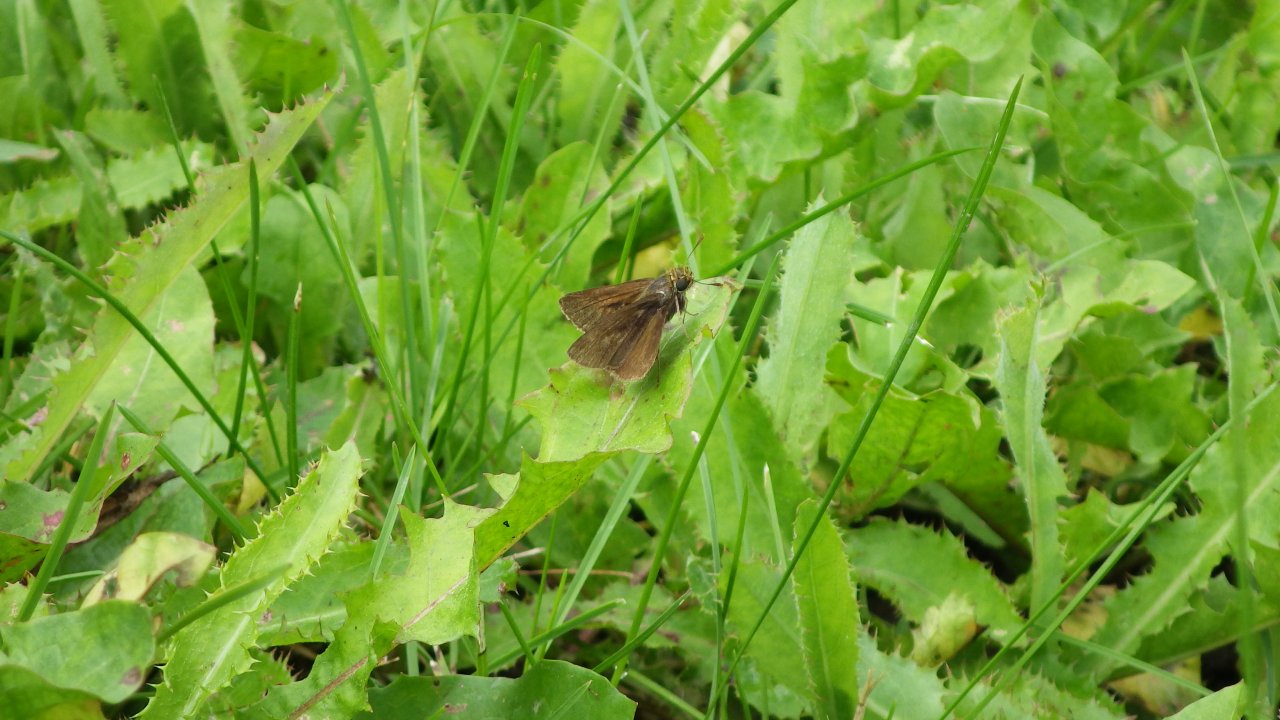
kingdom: Animalia
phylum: Arthropoda
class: Insecta
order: Lepidoptera
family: Hesperiidae
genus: Euphyes
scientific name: Euphyes vestris
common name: Dun Skipper
